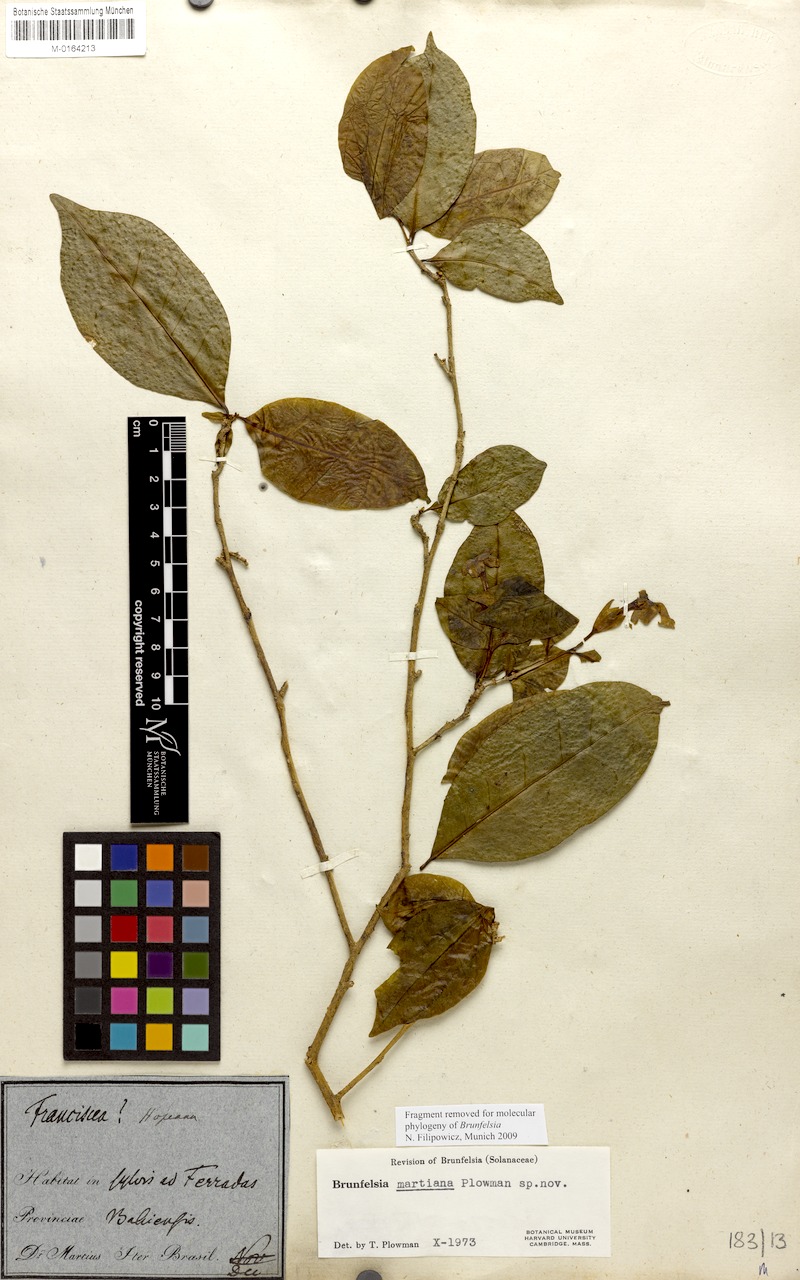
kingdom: Plantae
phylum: Tracheophyta
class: Magnoliopsida
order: Solanales
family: Solanaceae
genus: Brunfelsia
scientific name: Brunfelsia martiana
